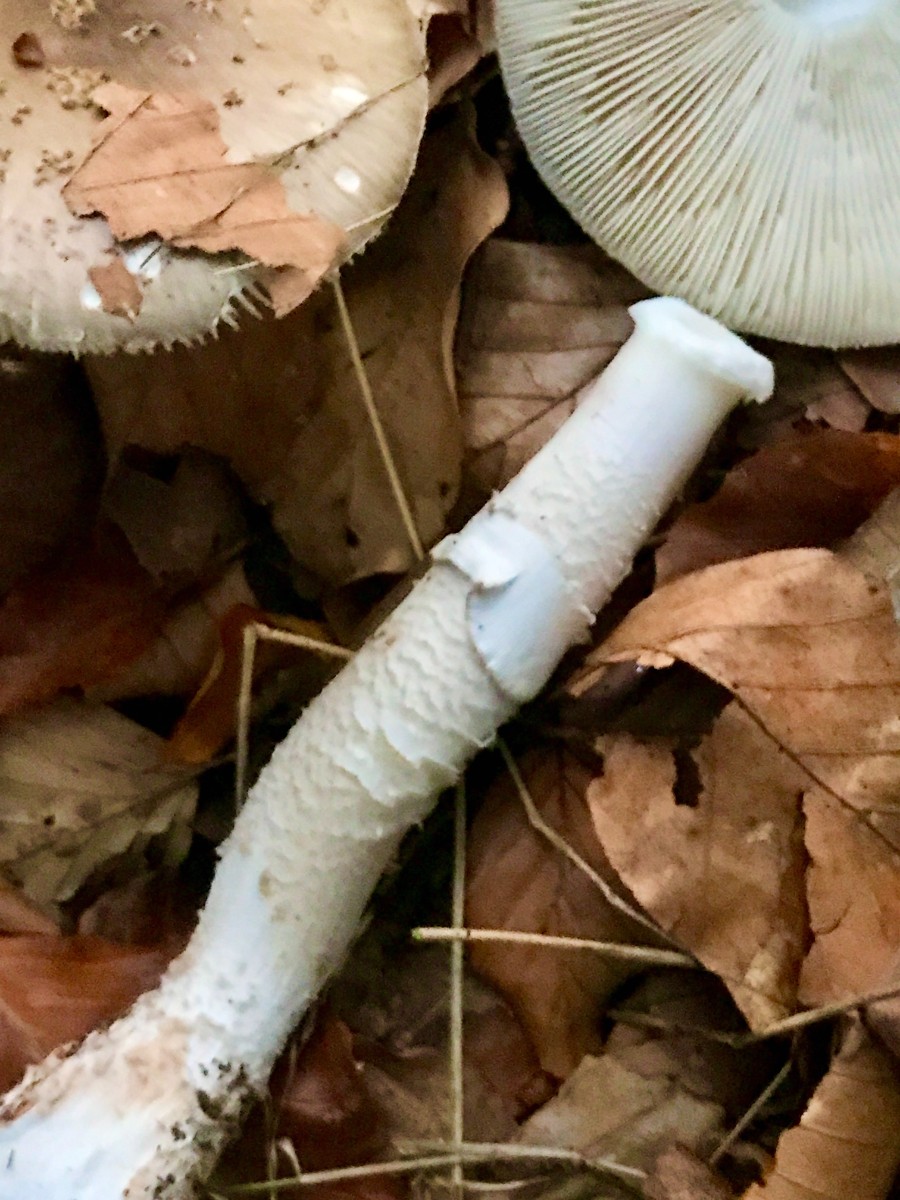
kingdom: Fungi
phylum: Basidiomycota
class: Agaricomycetes
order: Agaricales
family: Amanitaceae
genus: Amanita
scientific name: Amanita
